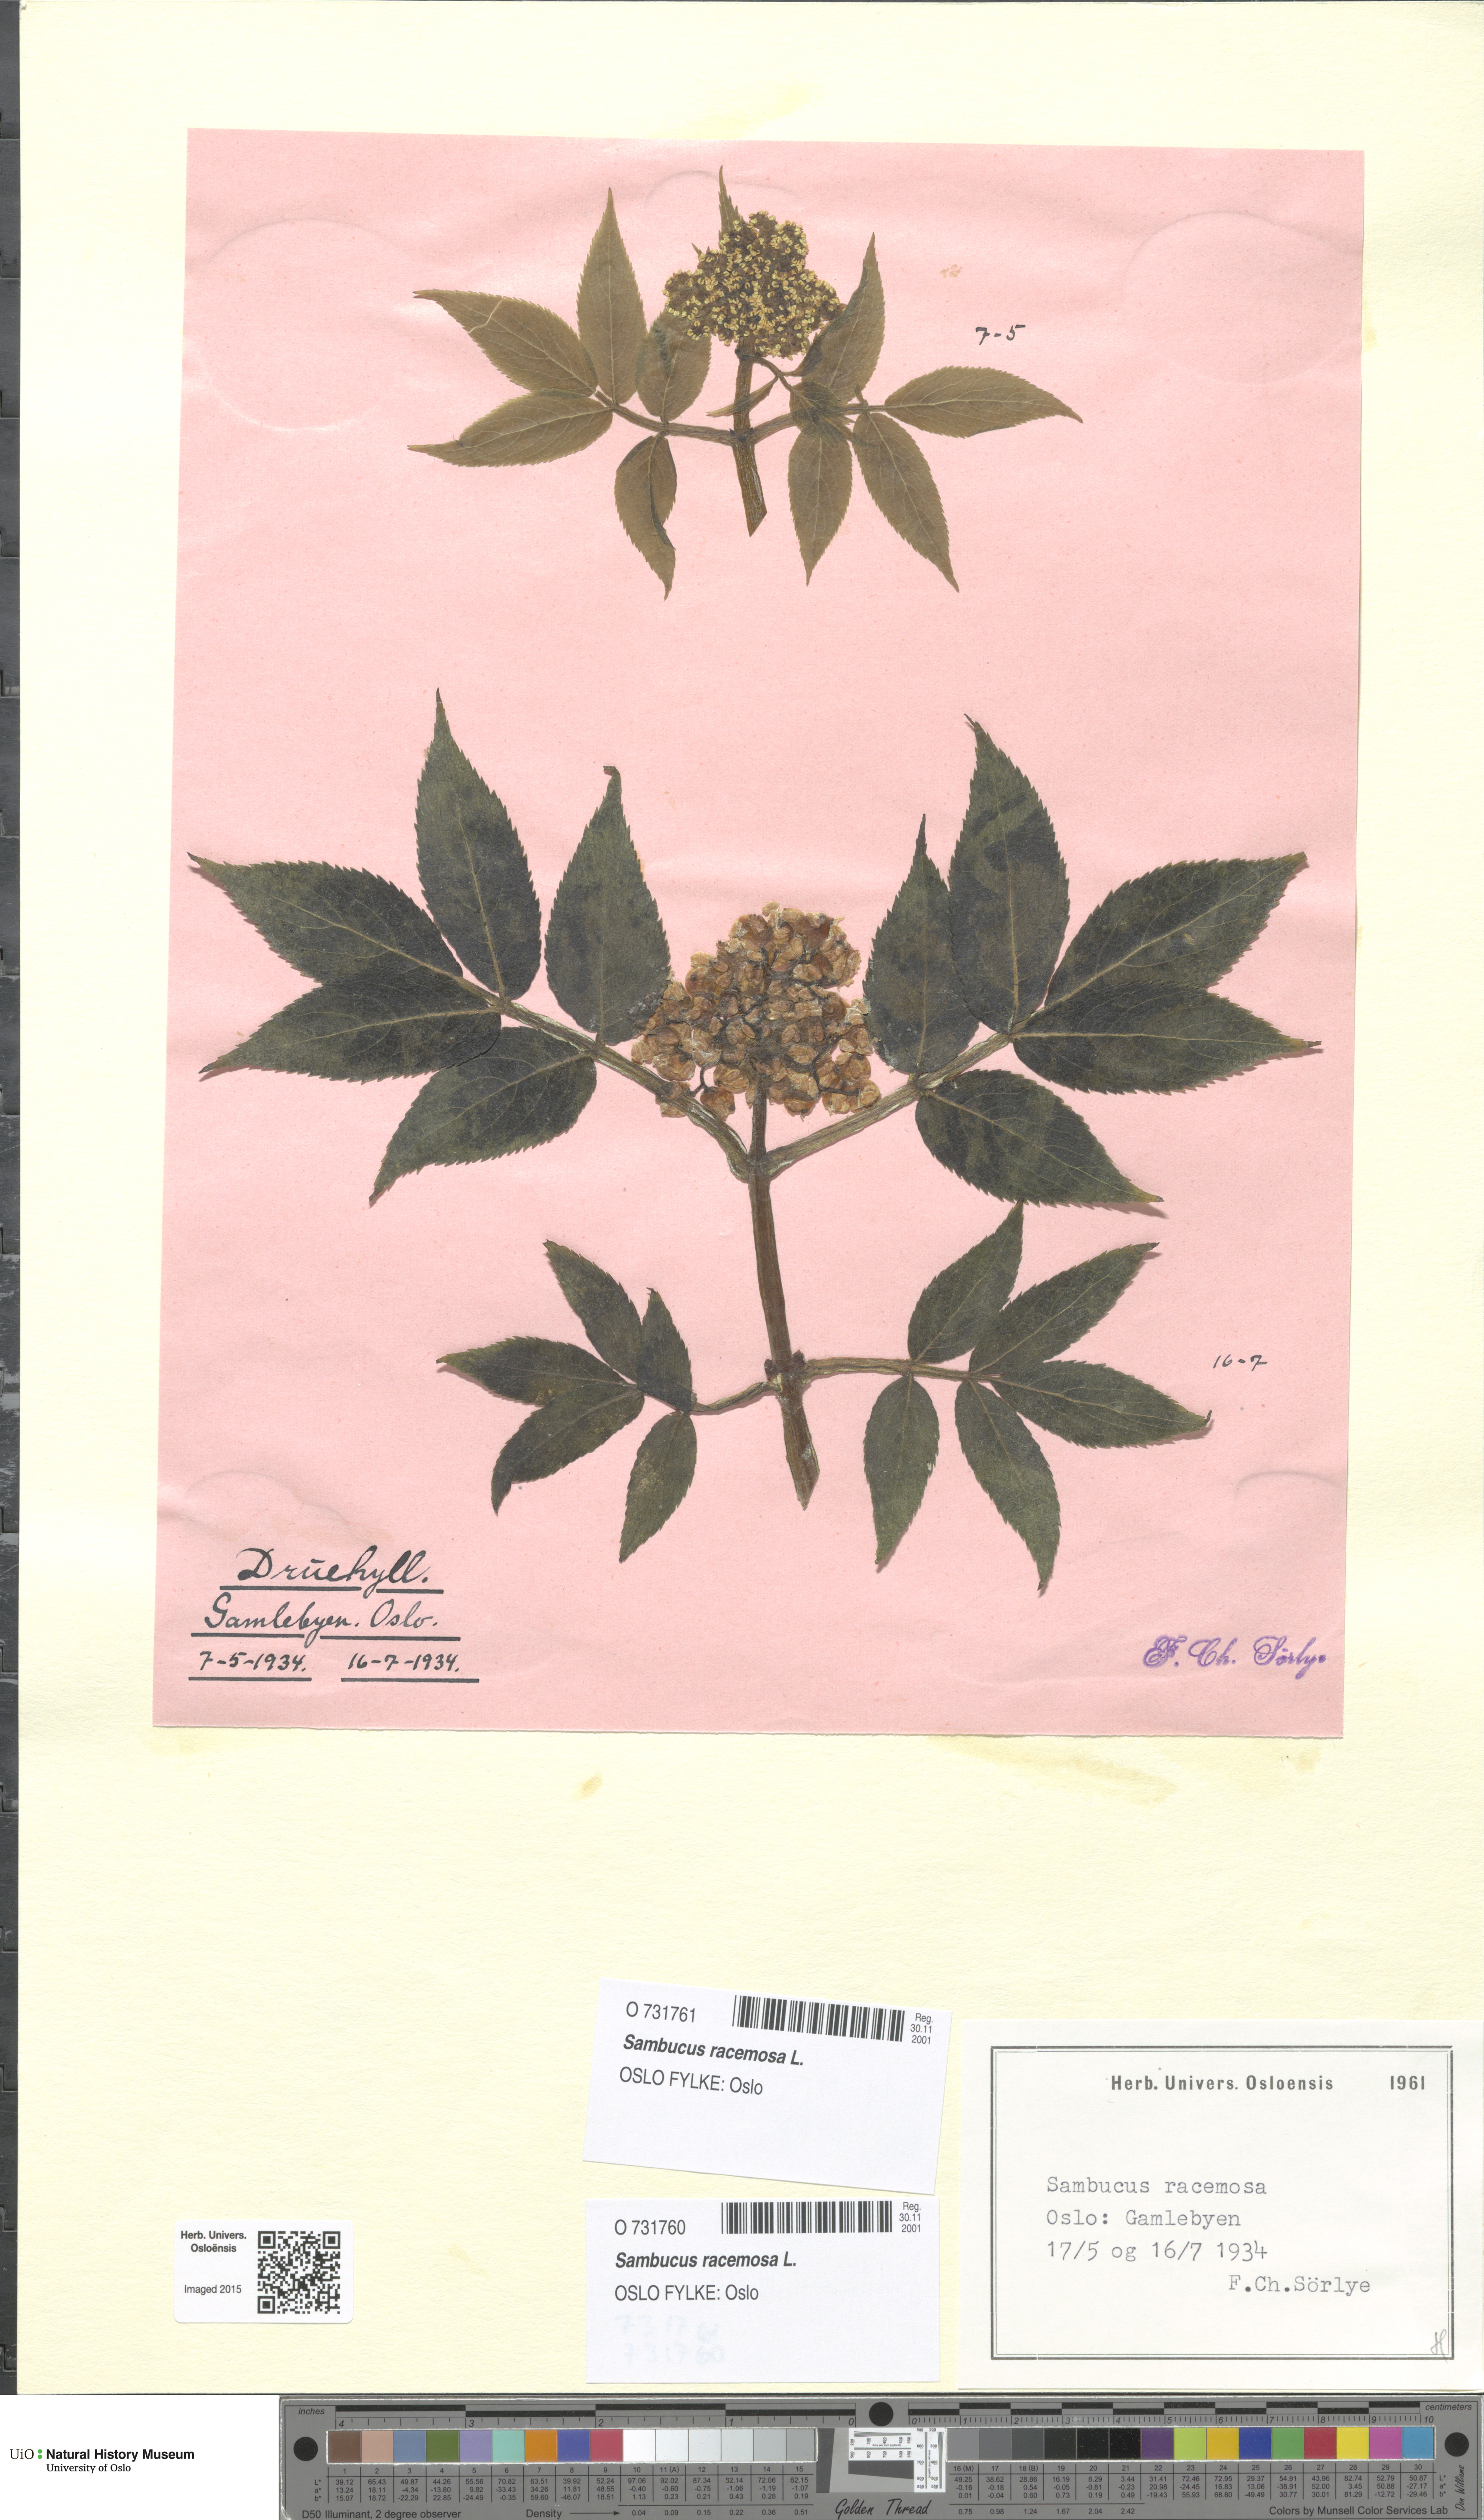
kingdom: Plantae
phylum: Tracheophyta
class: Magnoliopsida
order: Dipsacales
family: Viburnaceae
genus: Sambucus
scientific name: Sambucus racemosa
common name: Red-berried elder
